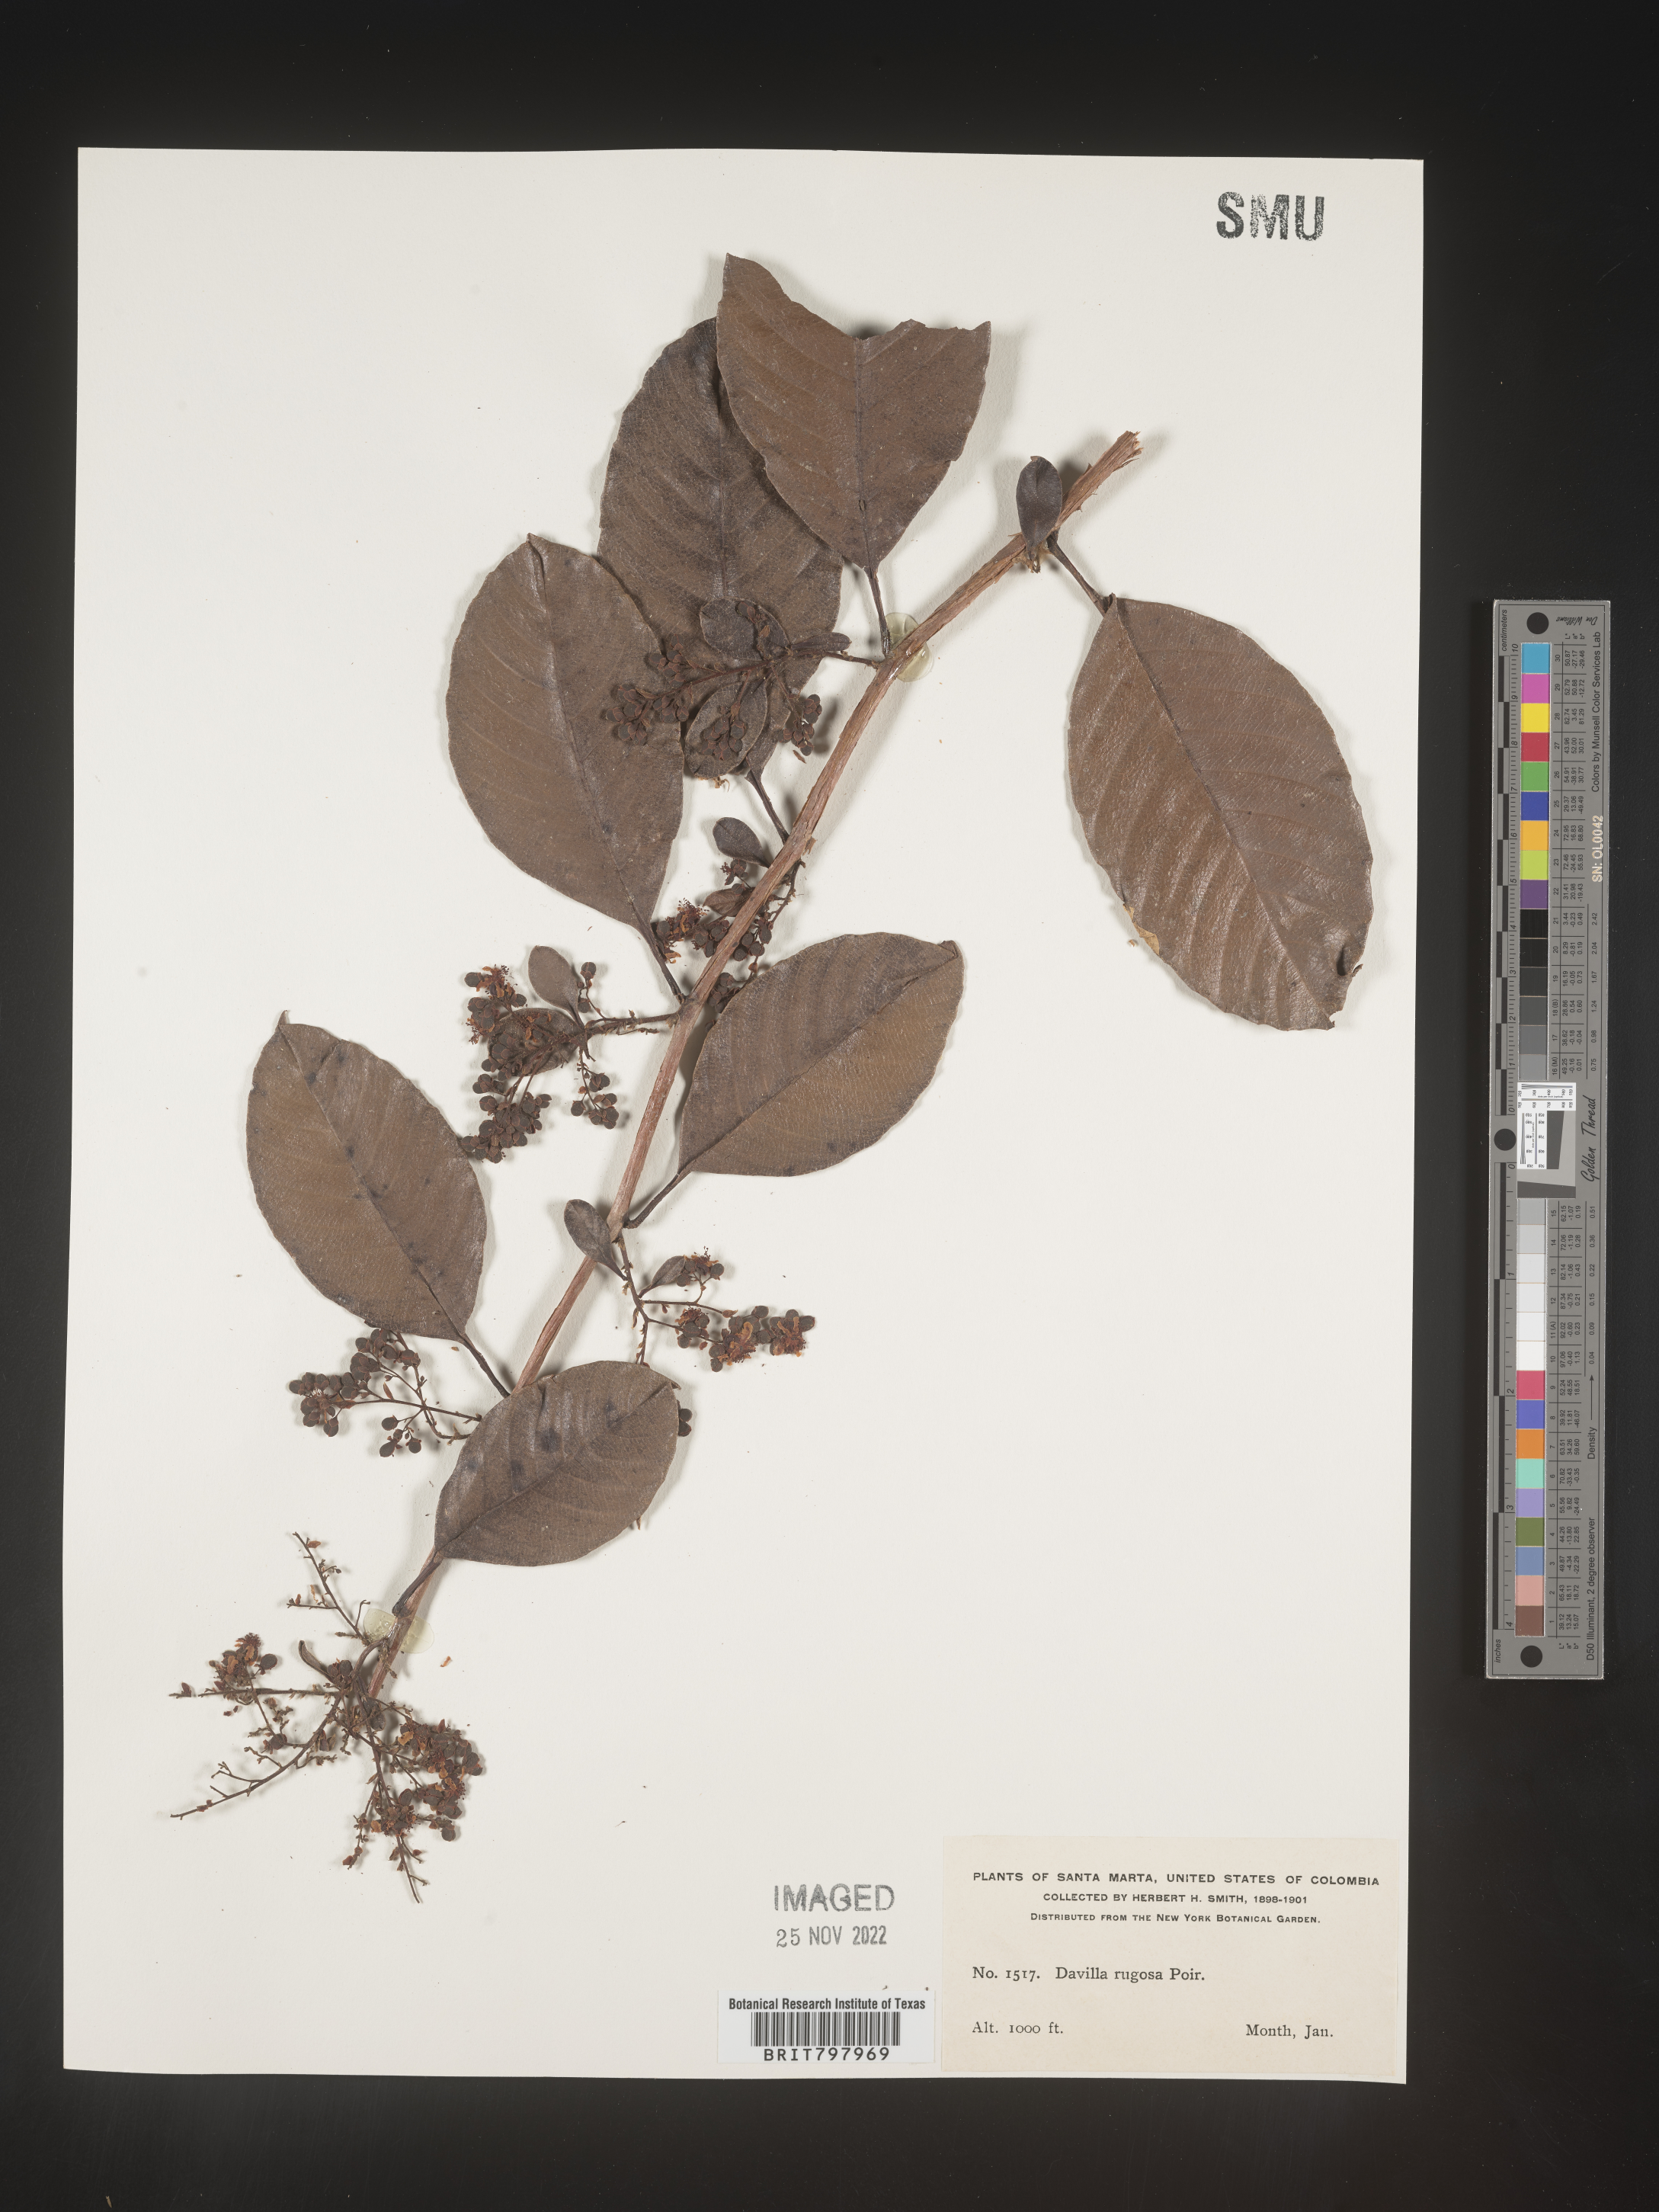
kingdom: Plantae
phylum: Tracheophyta
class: Polypodiopsida
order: Polypodiales
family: Davalliaceae
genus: Davallia
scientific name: Davallia
